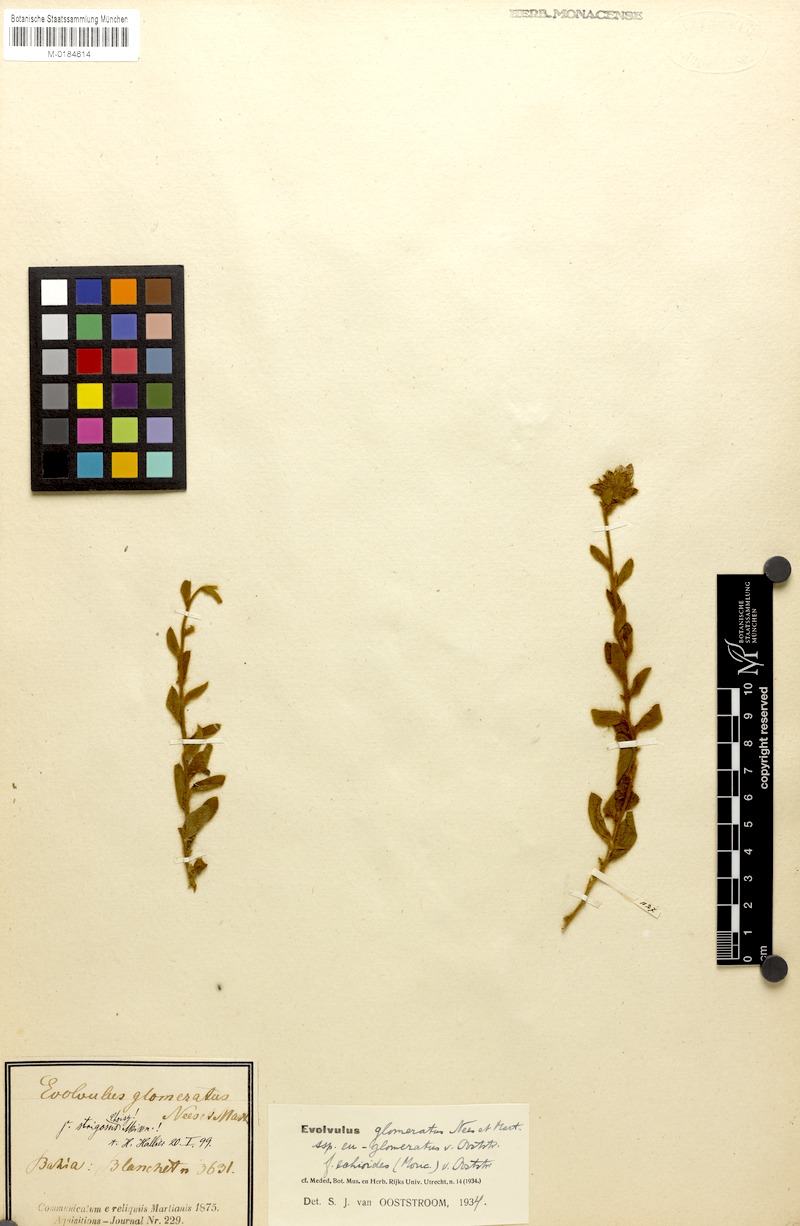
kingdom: Plantae
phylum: Tracheophyta
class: Magnoliopsida
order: Solanales
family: Convolvulaceae
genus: Evolvulus
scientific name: Evolvulus echioides
